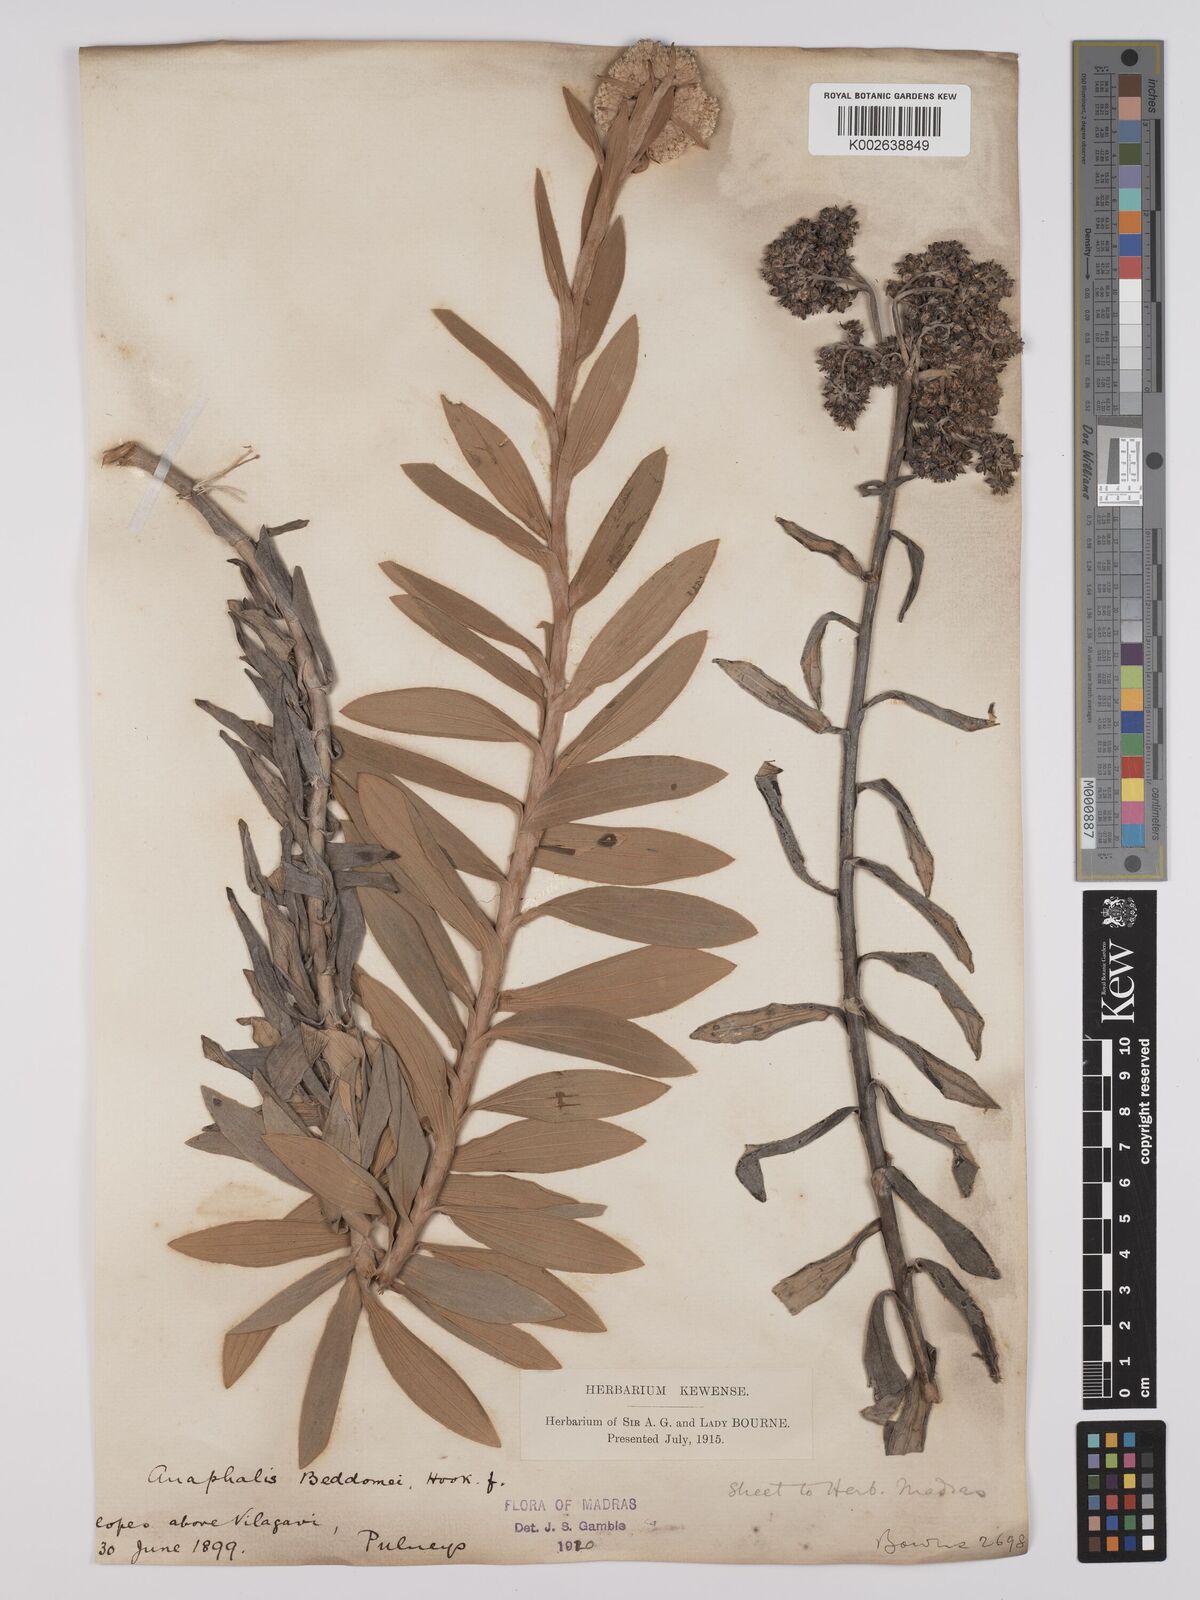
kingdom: Plantae
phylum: Tracheophyta
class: Magnoliopsida
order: Asterales
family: Asteraceae
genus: Anaphalis
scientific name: Anaphalis beddomei
